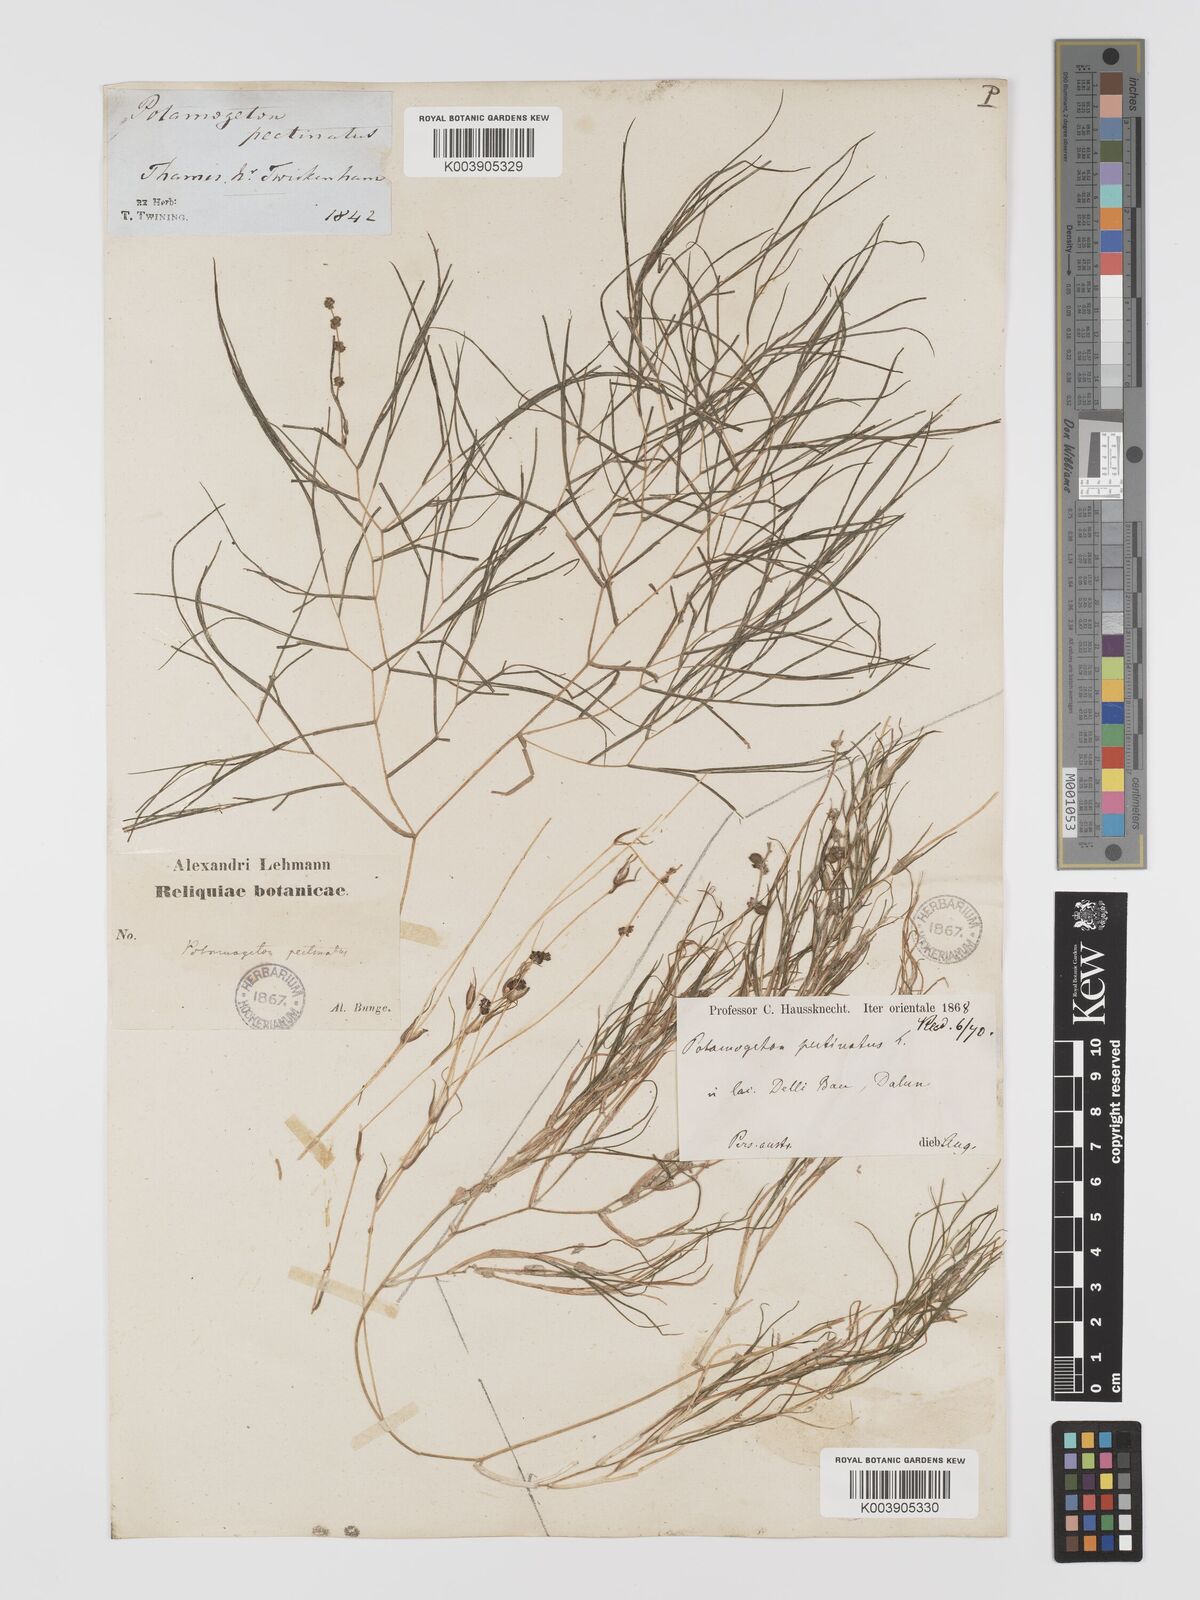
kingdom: Plantae
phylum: Tracheophyta
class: Liliopsida
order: Alismatales
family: Potamogetonaceae
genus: Stuckenia
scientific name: Stuckenia pectinata
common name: Sago pondweed
